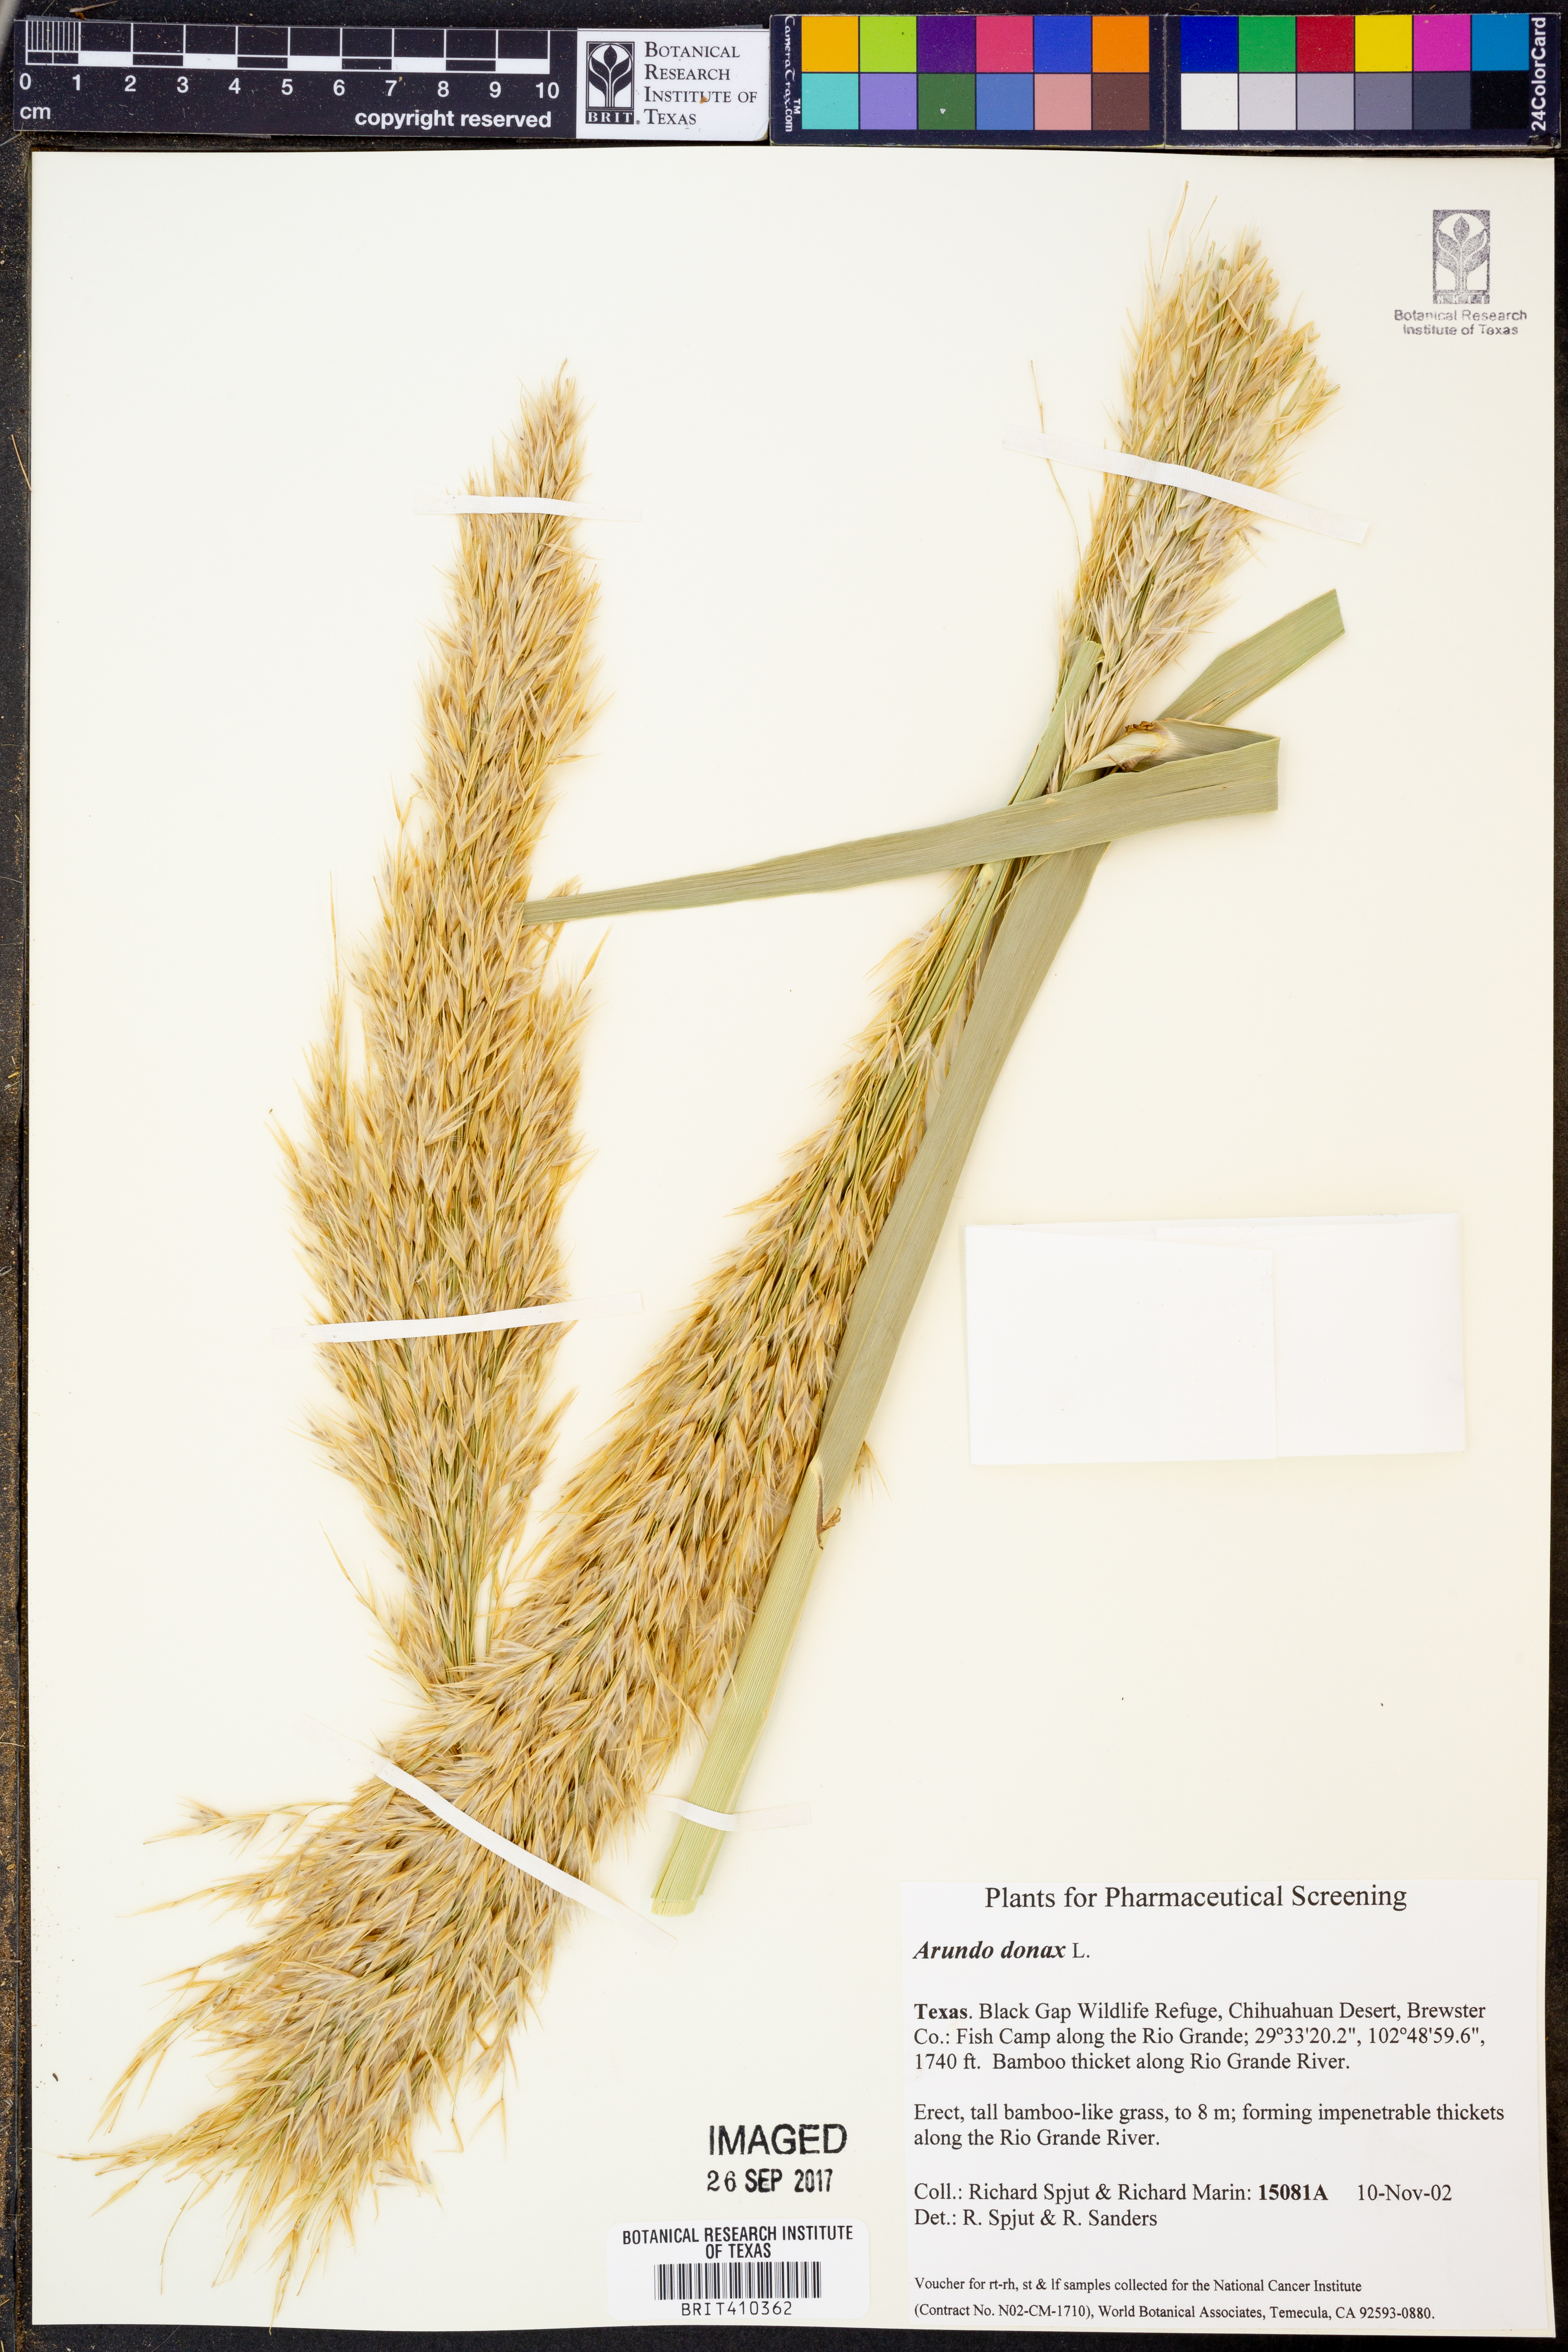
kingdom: Plantae
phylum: Tracheophyta
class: Liliopsida
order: Poales
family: Poaceae
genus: Arundo
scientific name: Arundo donax
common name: Giant reed
